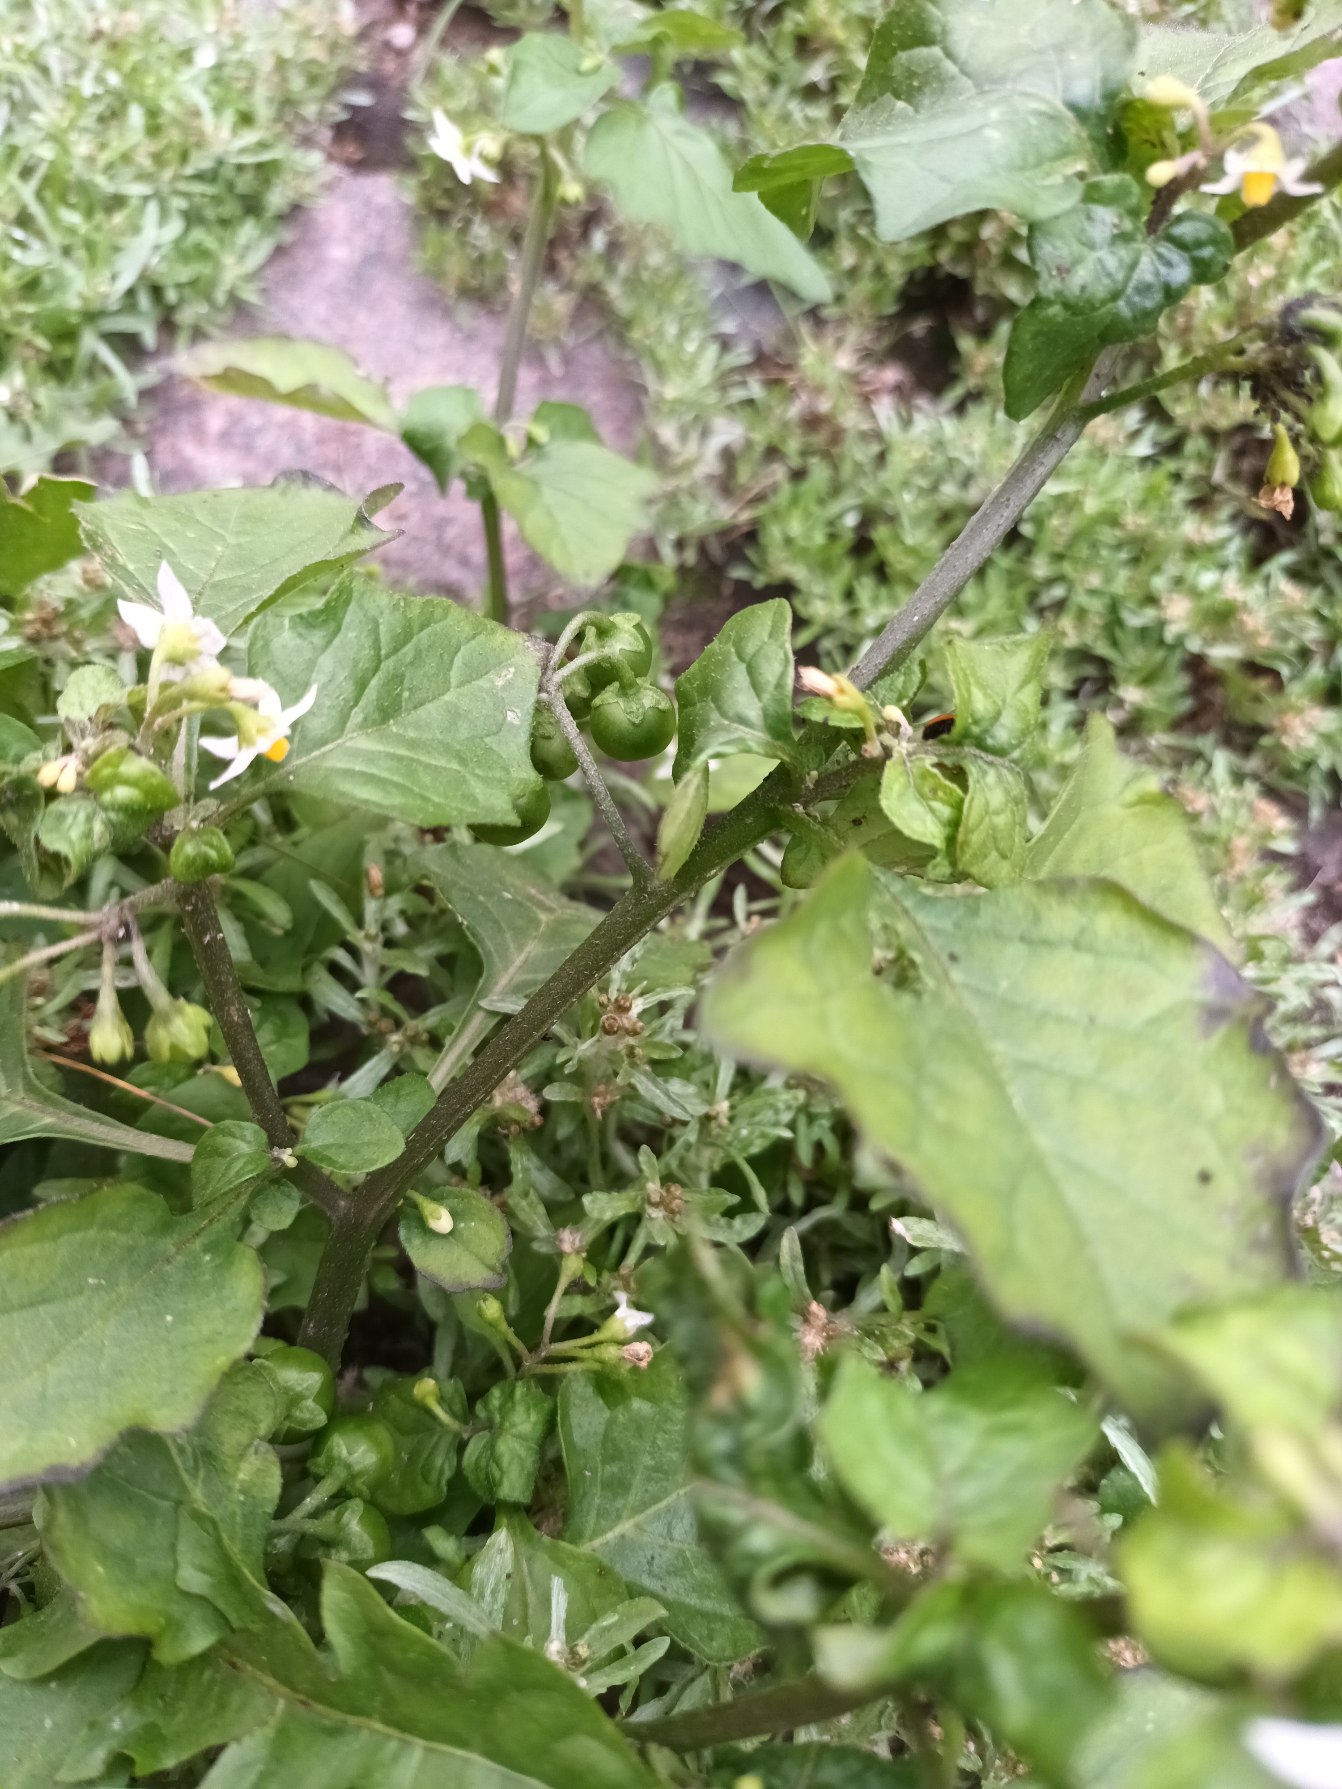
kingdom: Plantae
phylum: Tracheophyta
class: Magnoliopsida
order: Solanales
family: Solanaceae
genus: Solanum
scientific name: Solanum nigrum
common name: Sort natskygge
